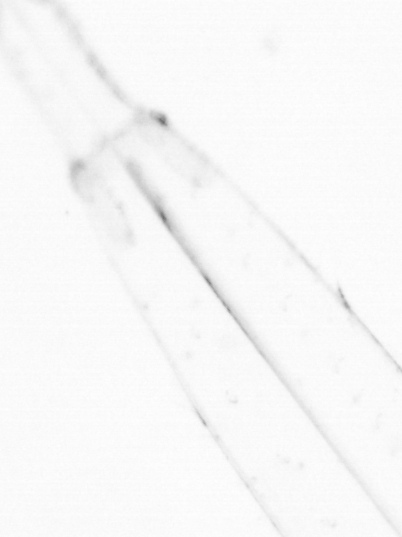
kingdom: Animalia
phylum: Chaetognatha
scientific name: Chaetognatha
